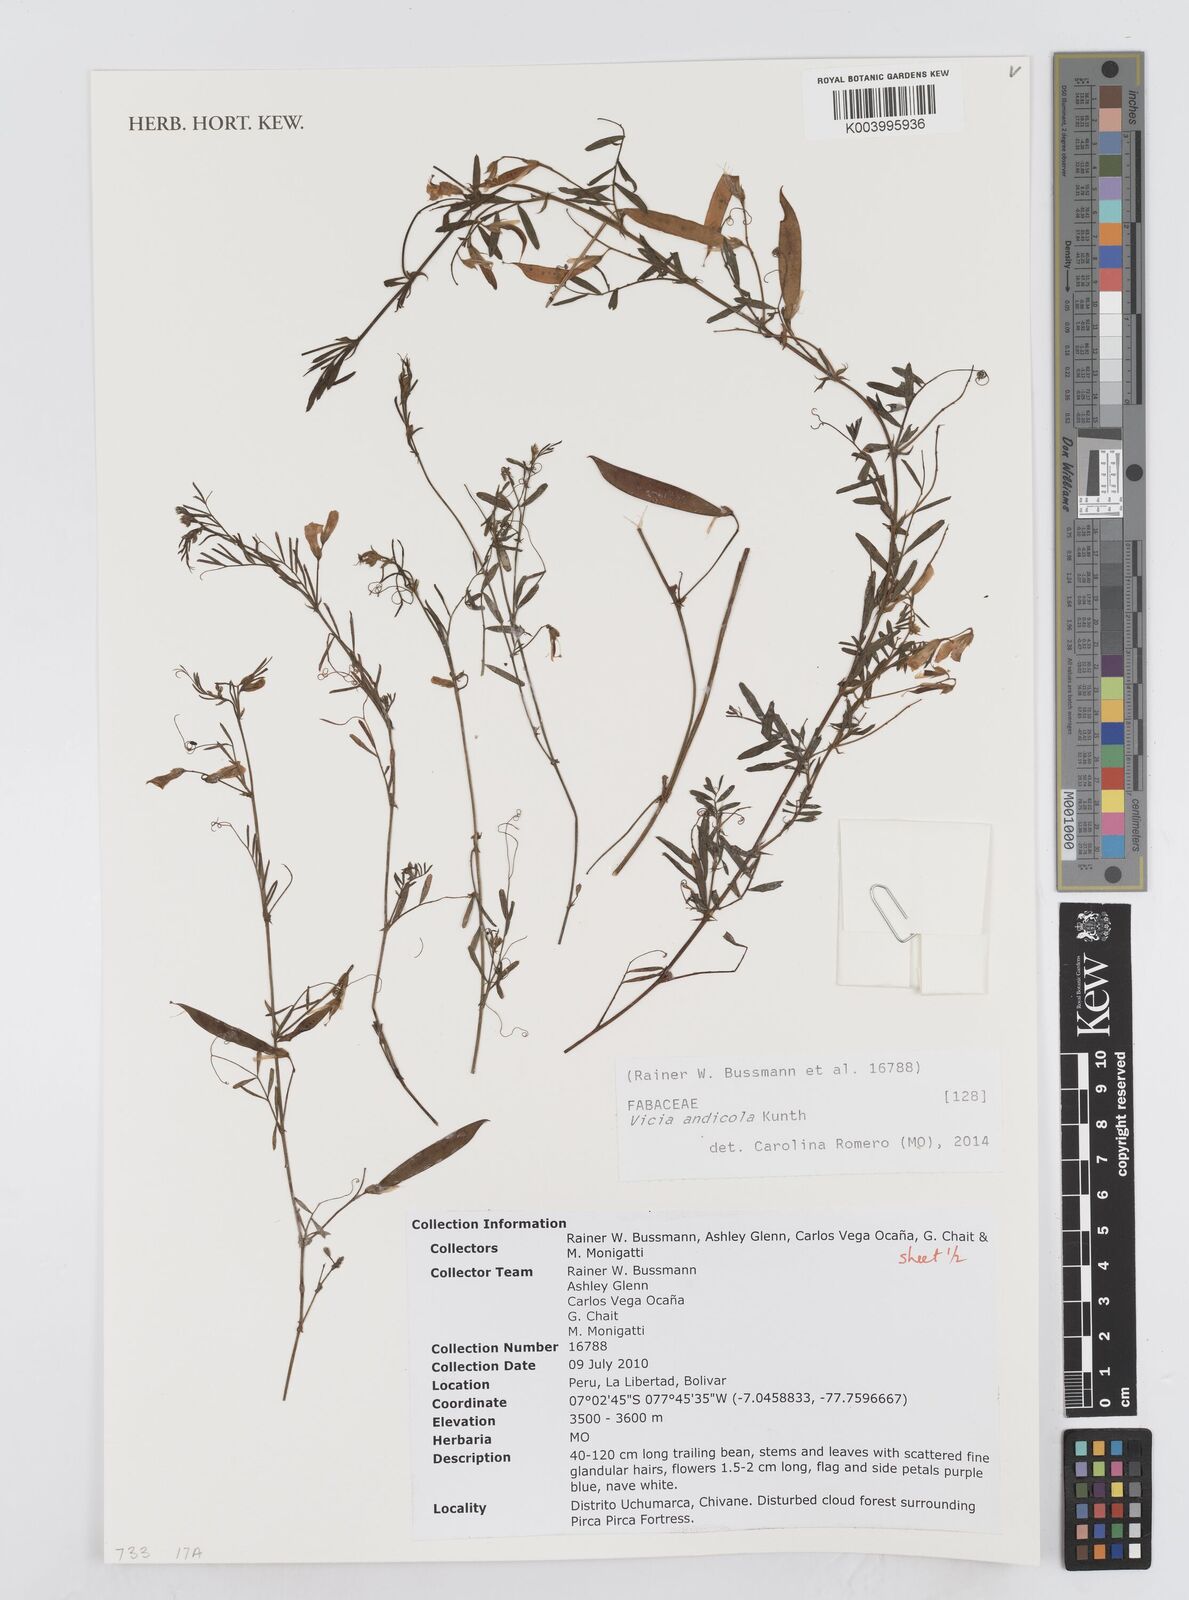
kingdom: Plantae
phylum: Tracheophyta
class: Magnoliopsida
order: Fabales
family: Fabaceae
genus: Vicia
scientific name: Vicia andicola
